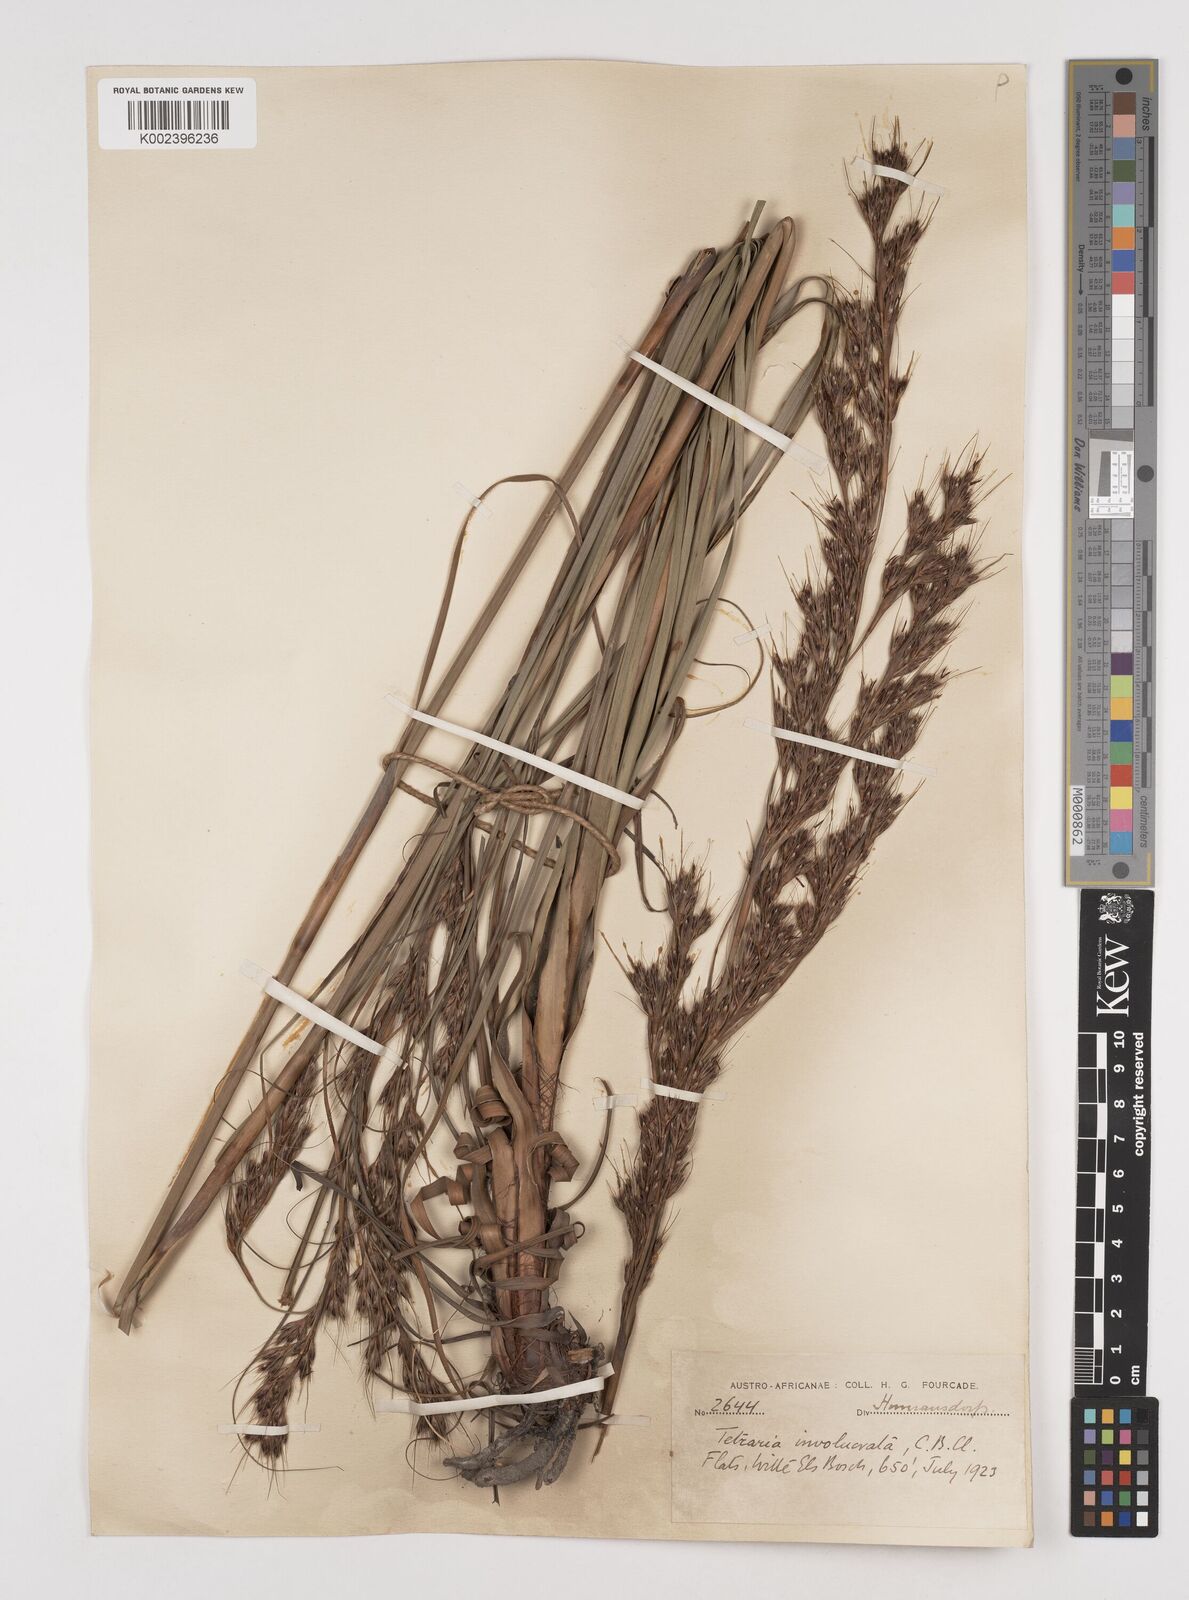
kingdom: Plantae
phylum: Tracheophyta
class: Liliopsida
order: Poales
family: Cyperaceae
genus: Tetraria
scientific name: Tetraria involucrata
